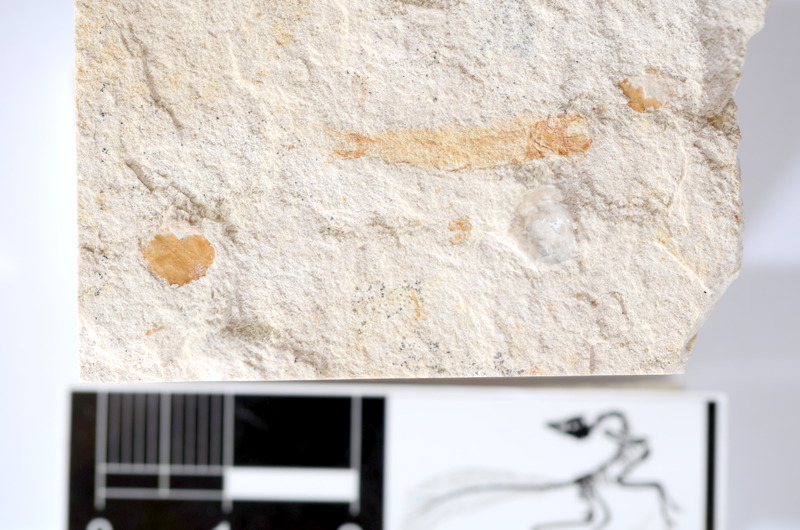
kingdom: Animalia
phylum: Chordata
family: Ascalaboidae
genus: Tharsis
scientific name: Tharsis dubius
